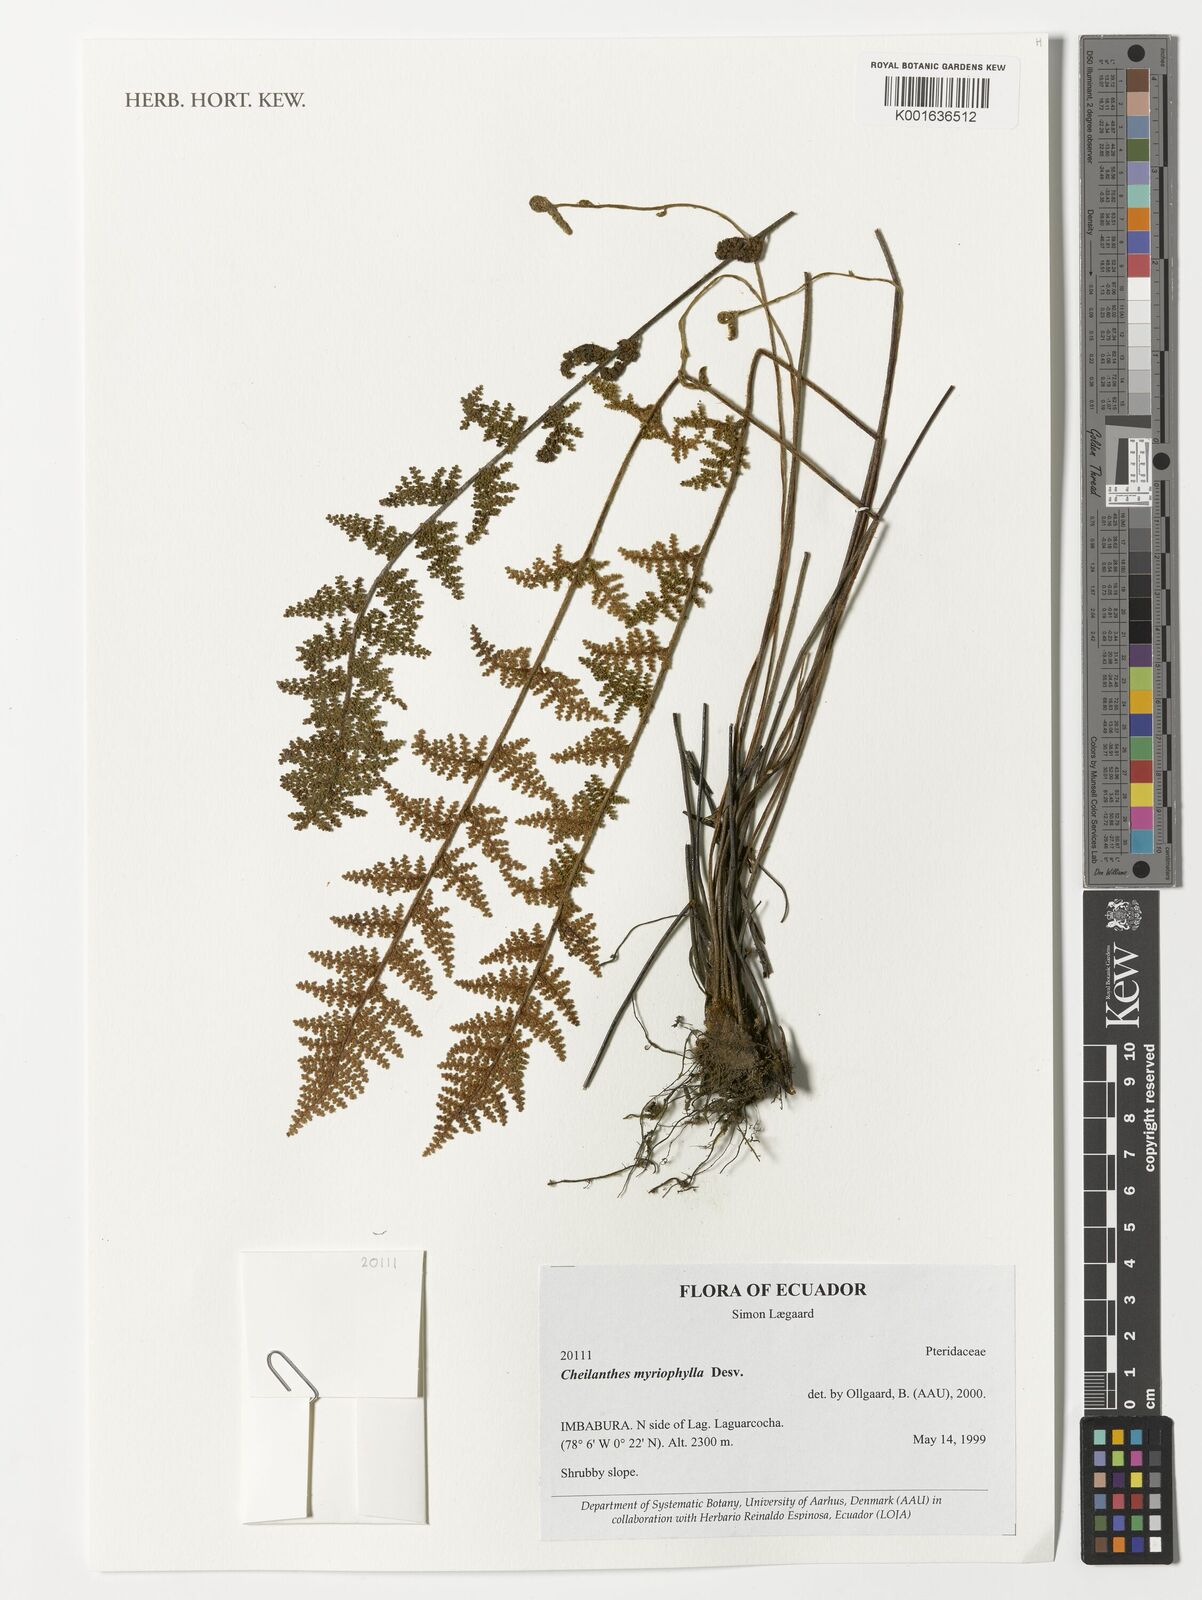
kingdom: Plantae
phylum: Tracheophyta
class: Polypodiopsida
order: Polypodiales
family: Pteridaceae
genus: Myriopteris
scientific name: Myriopteris myriophylla
